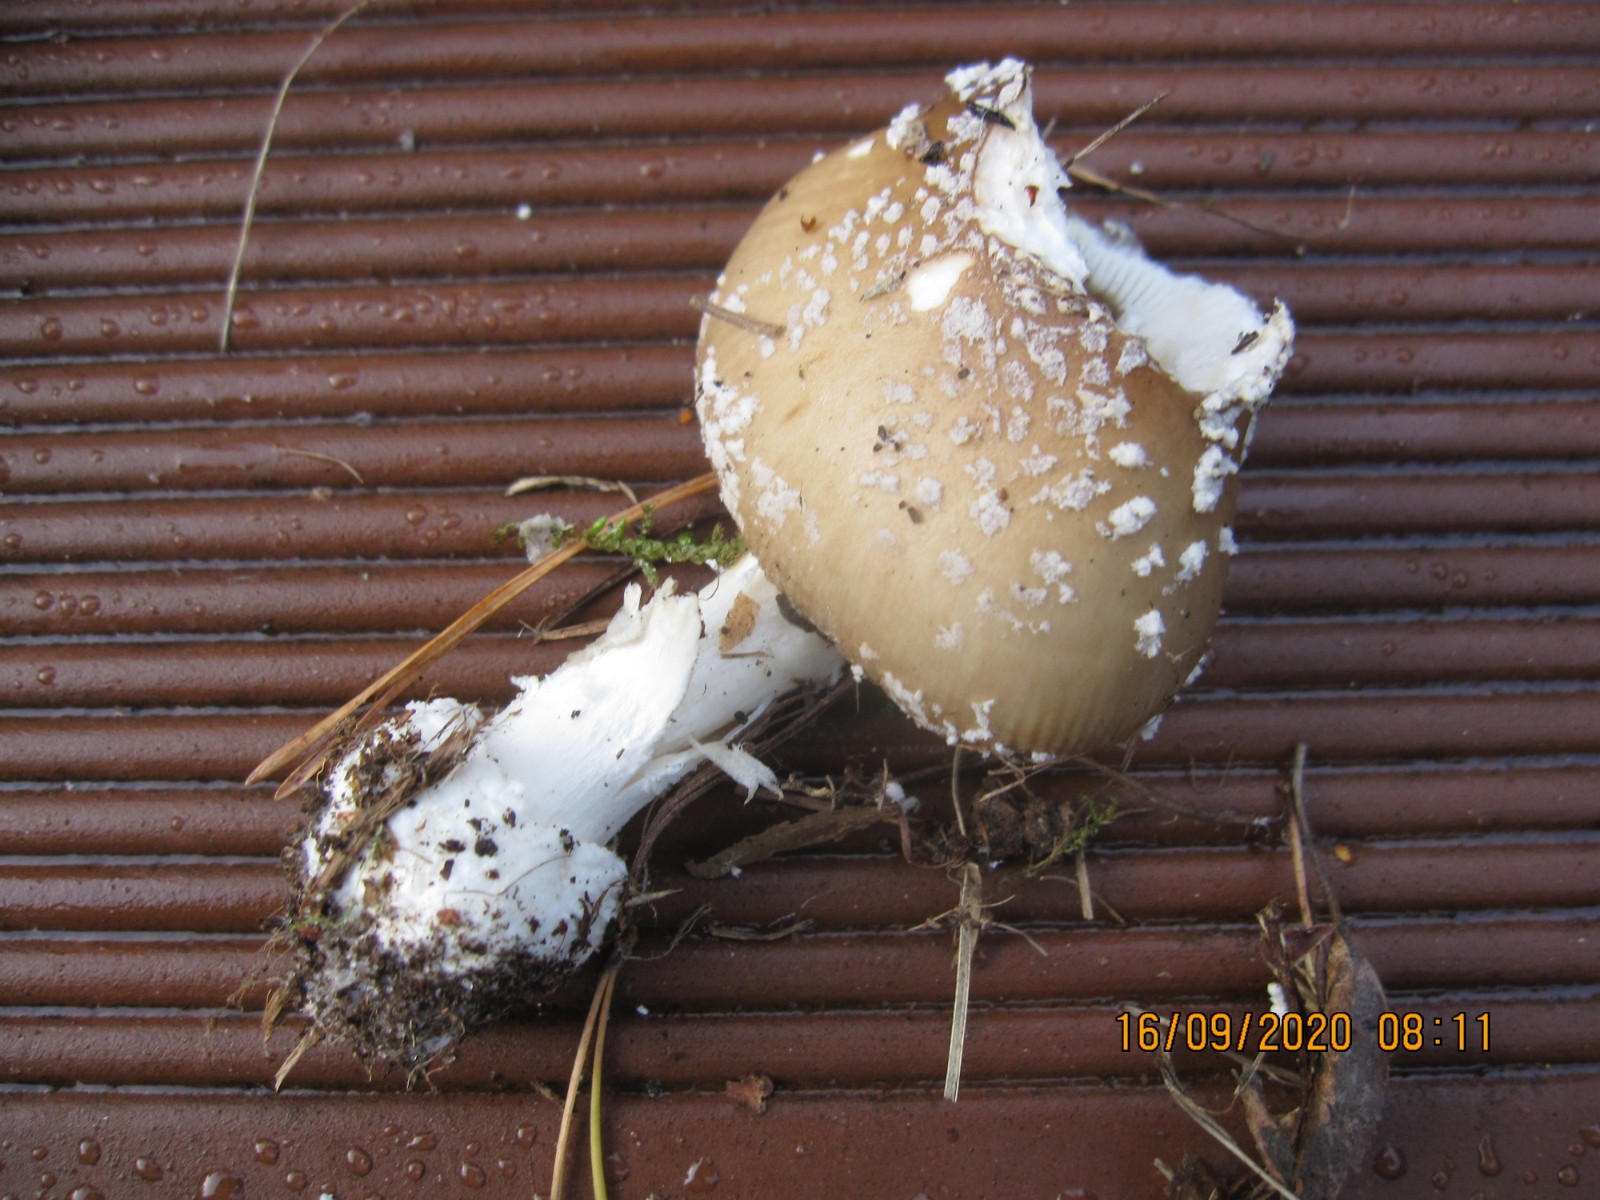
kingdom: Fungi
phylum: Basidiomycota
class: Agaricomycetes
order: Agaricales
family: Amanitaceae
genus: Amanita
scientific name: Amanita pantherina
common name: panter-fluesvamp
